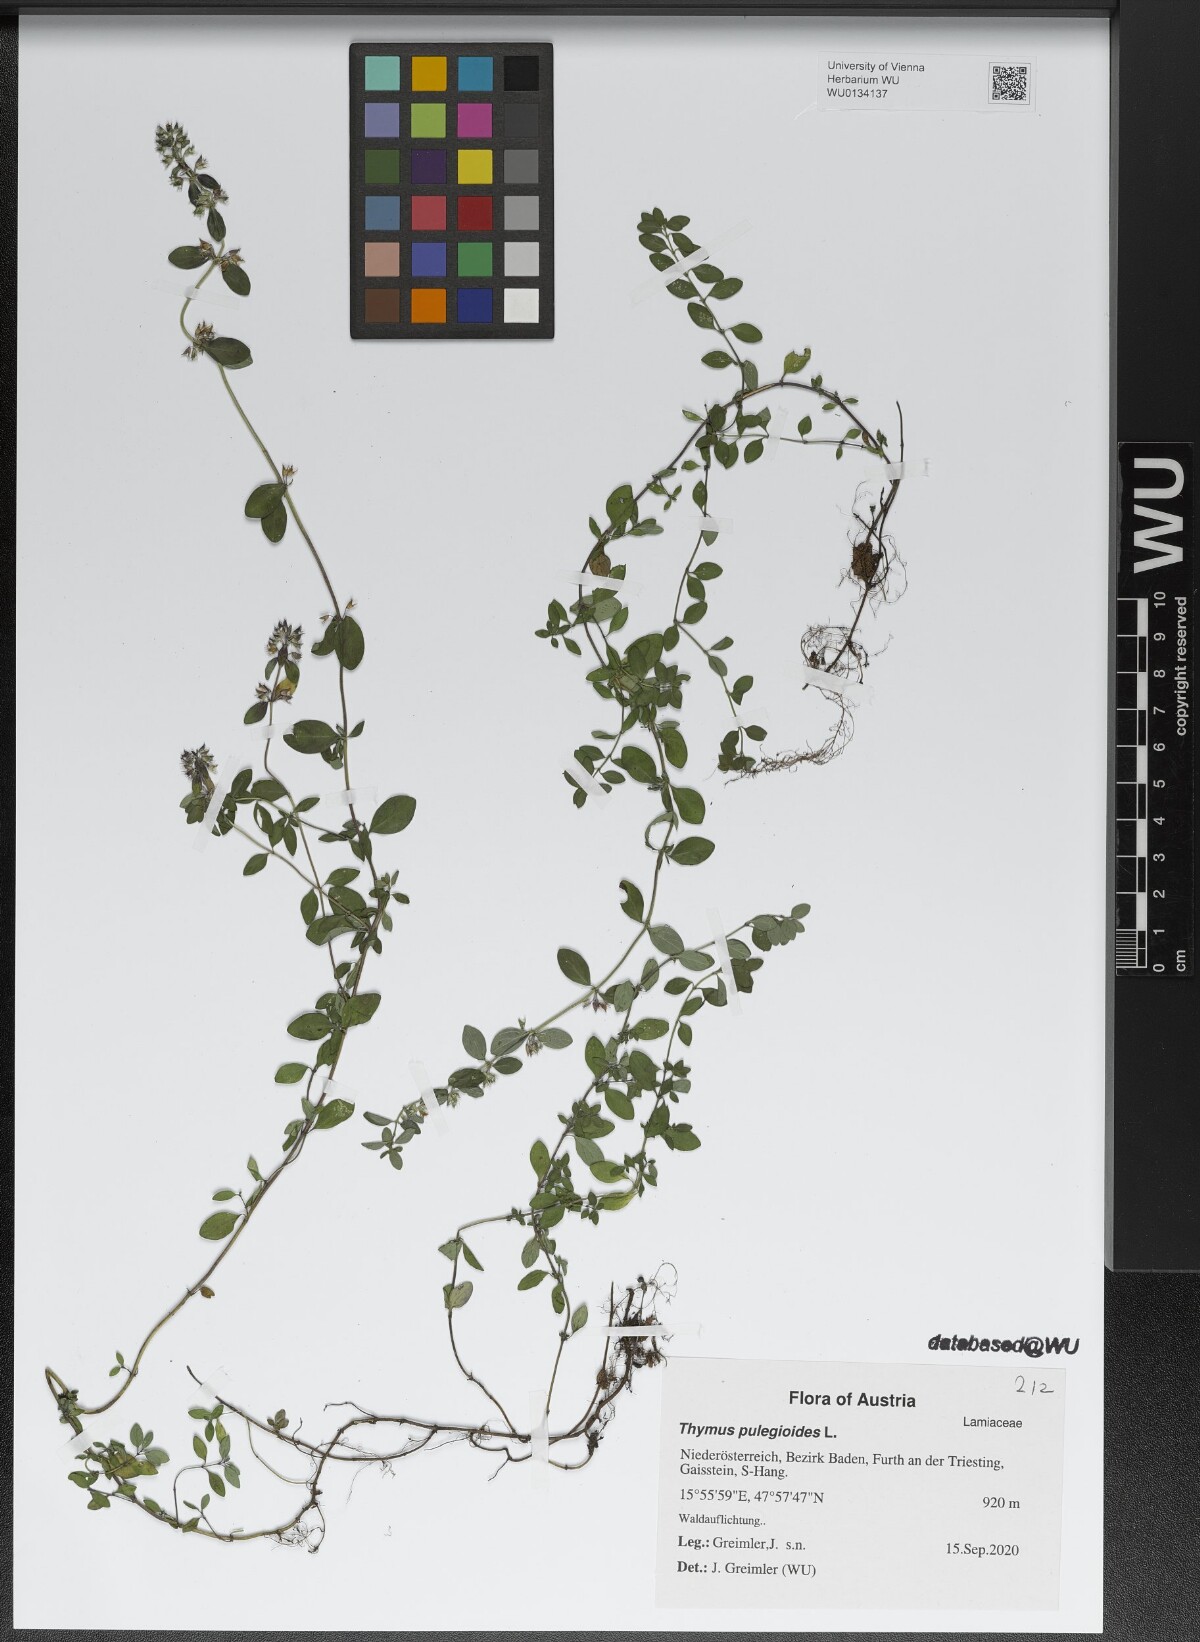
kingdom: Plantae
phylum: Tracheophyta
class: Magnoliopsida
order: Lamiales
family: Lamiaceae
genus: Thymus
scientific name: Thymus pulegioides
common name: Large thyme
